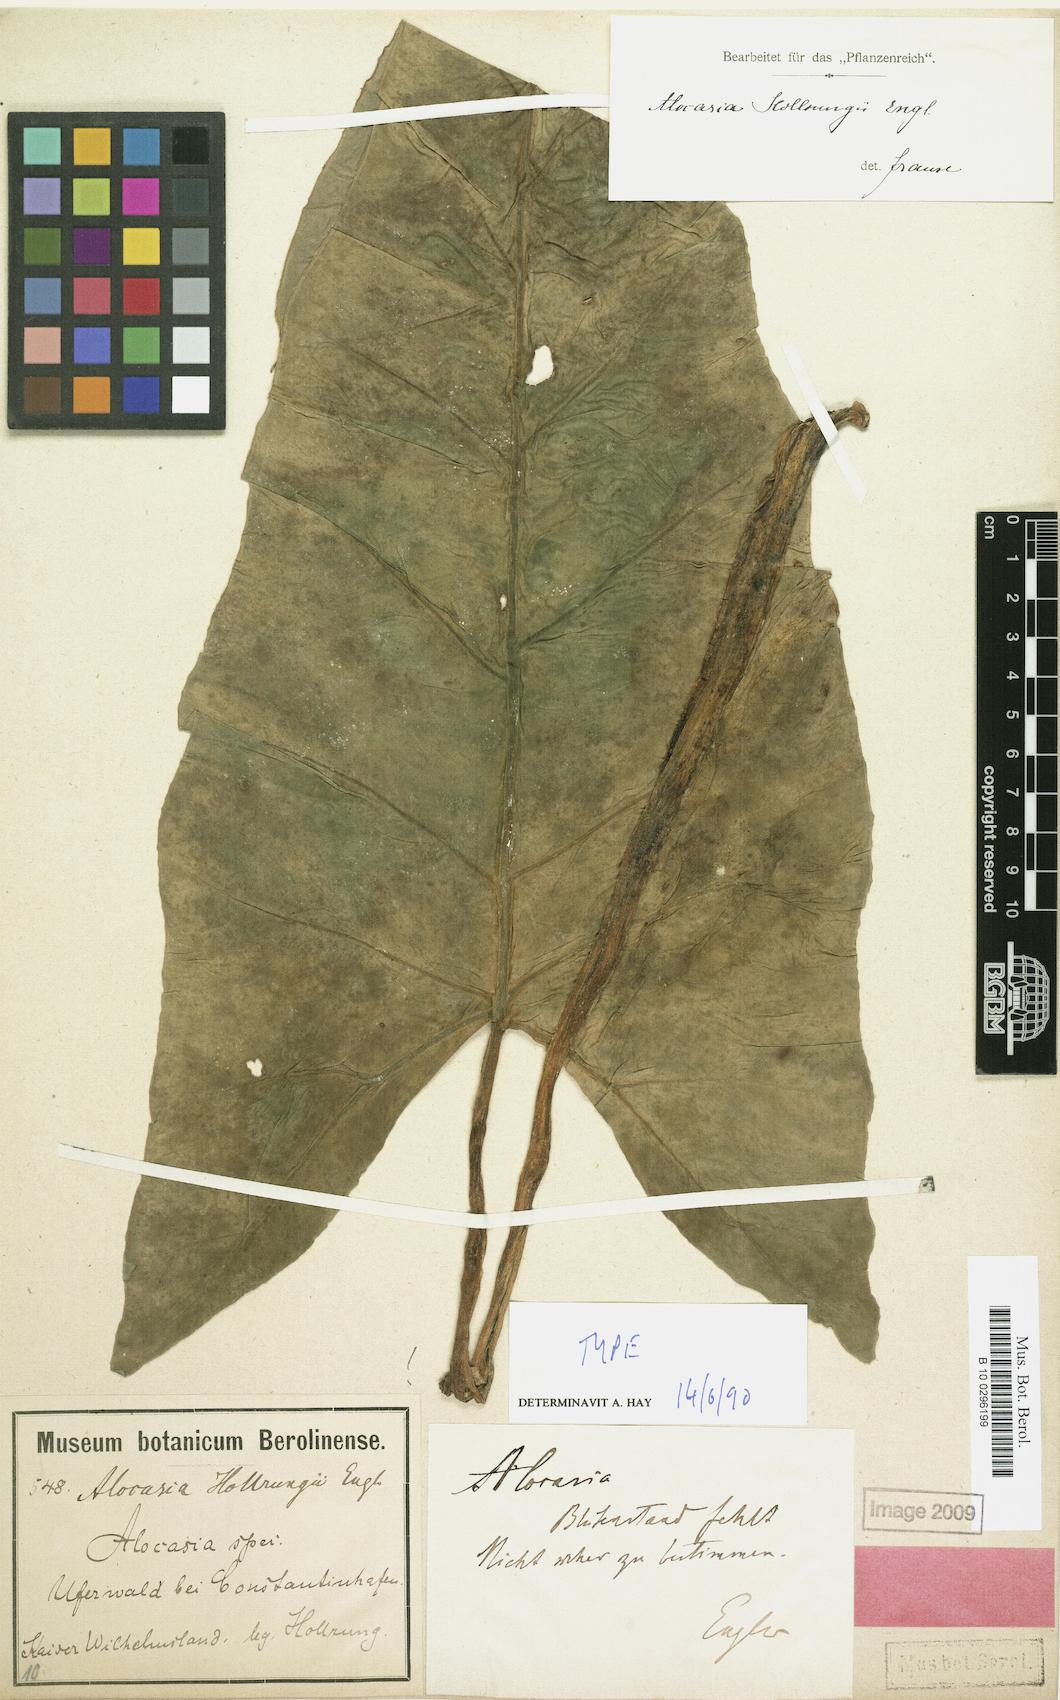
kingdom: Plantae
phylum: Tracheophyta
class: Liliopsida
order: Alismatales
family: Araceae
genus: Alocasia
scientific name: Alocasia hollrungii
